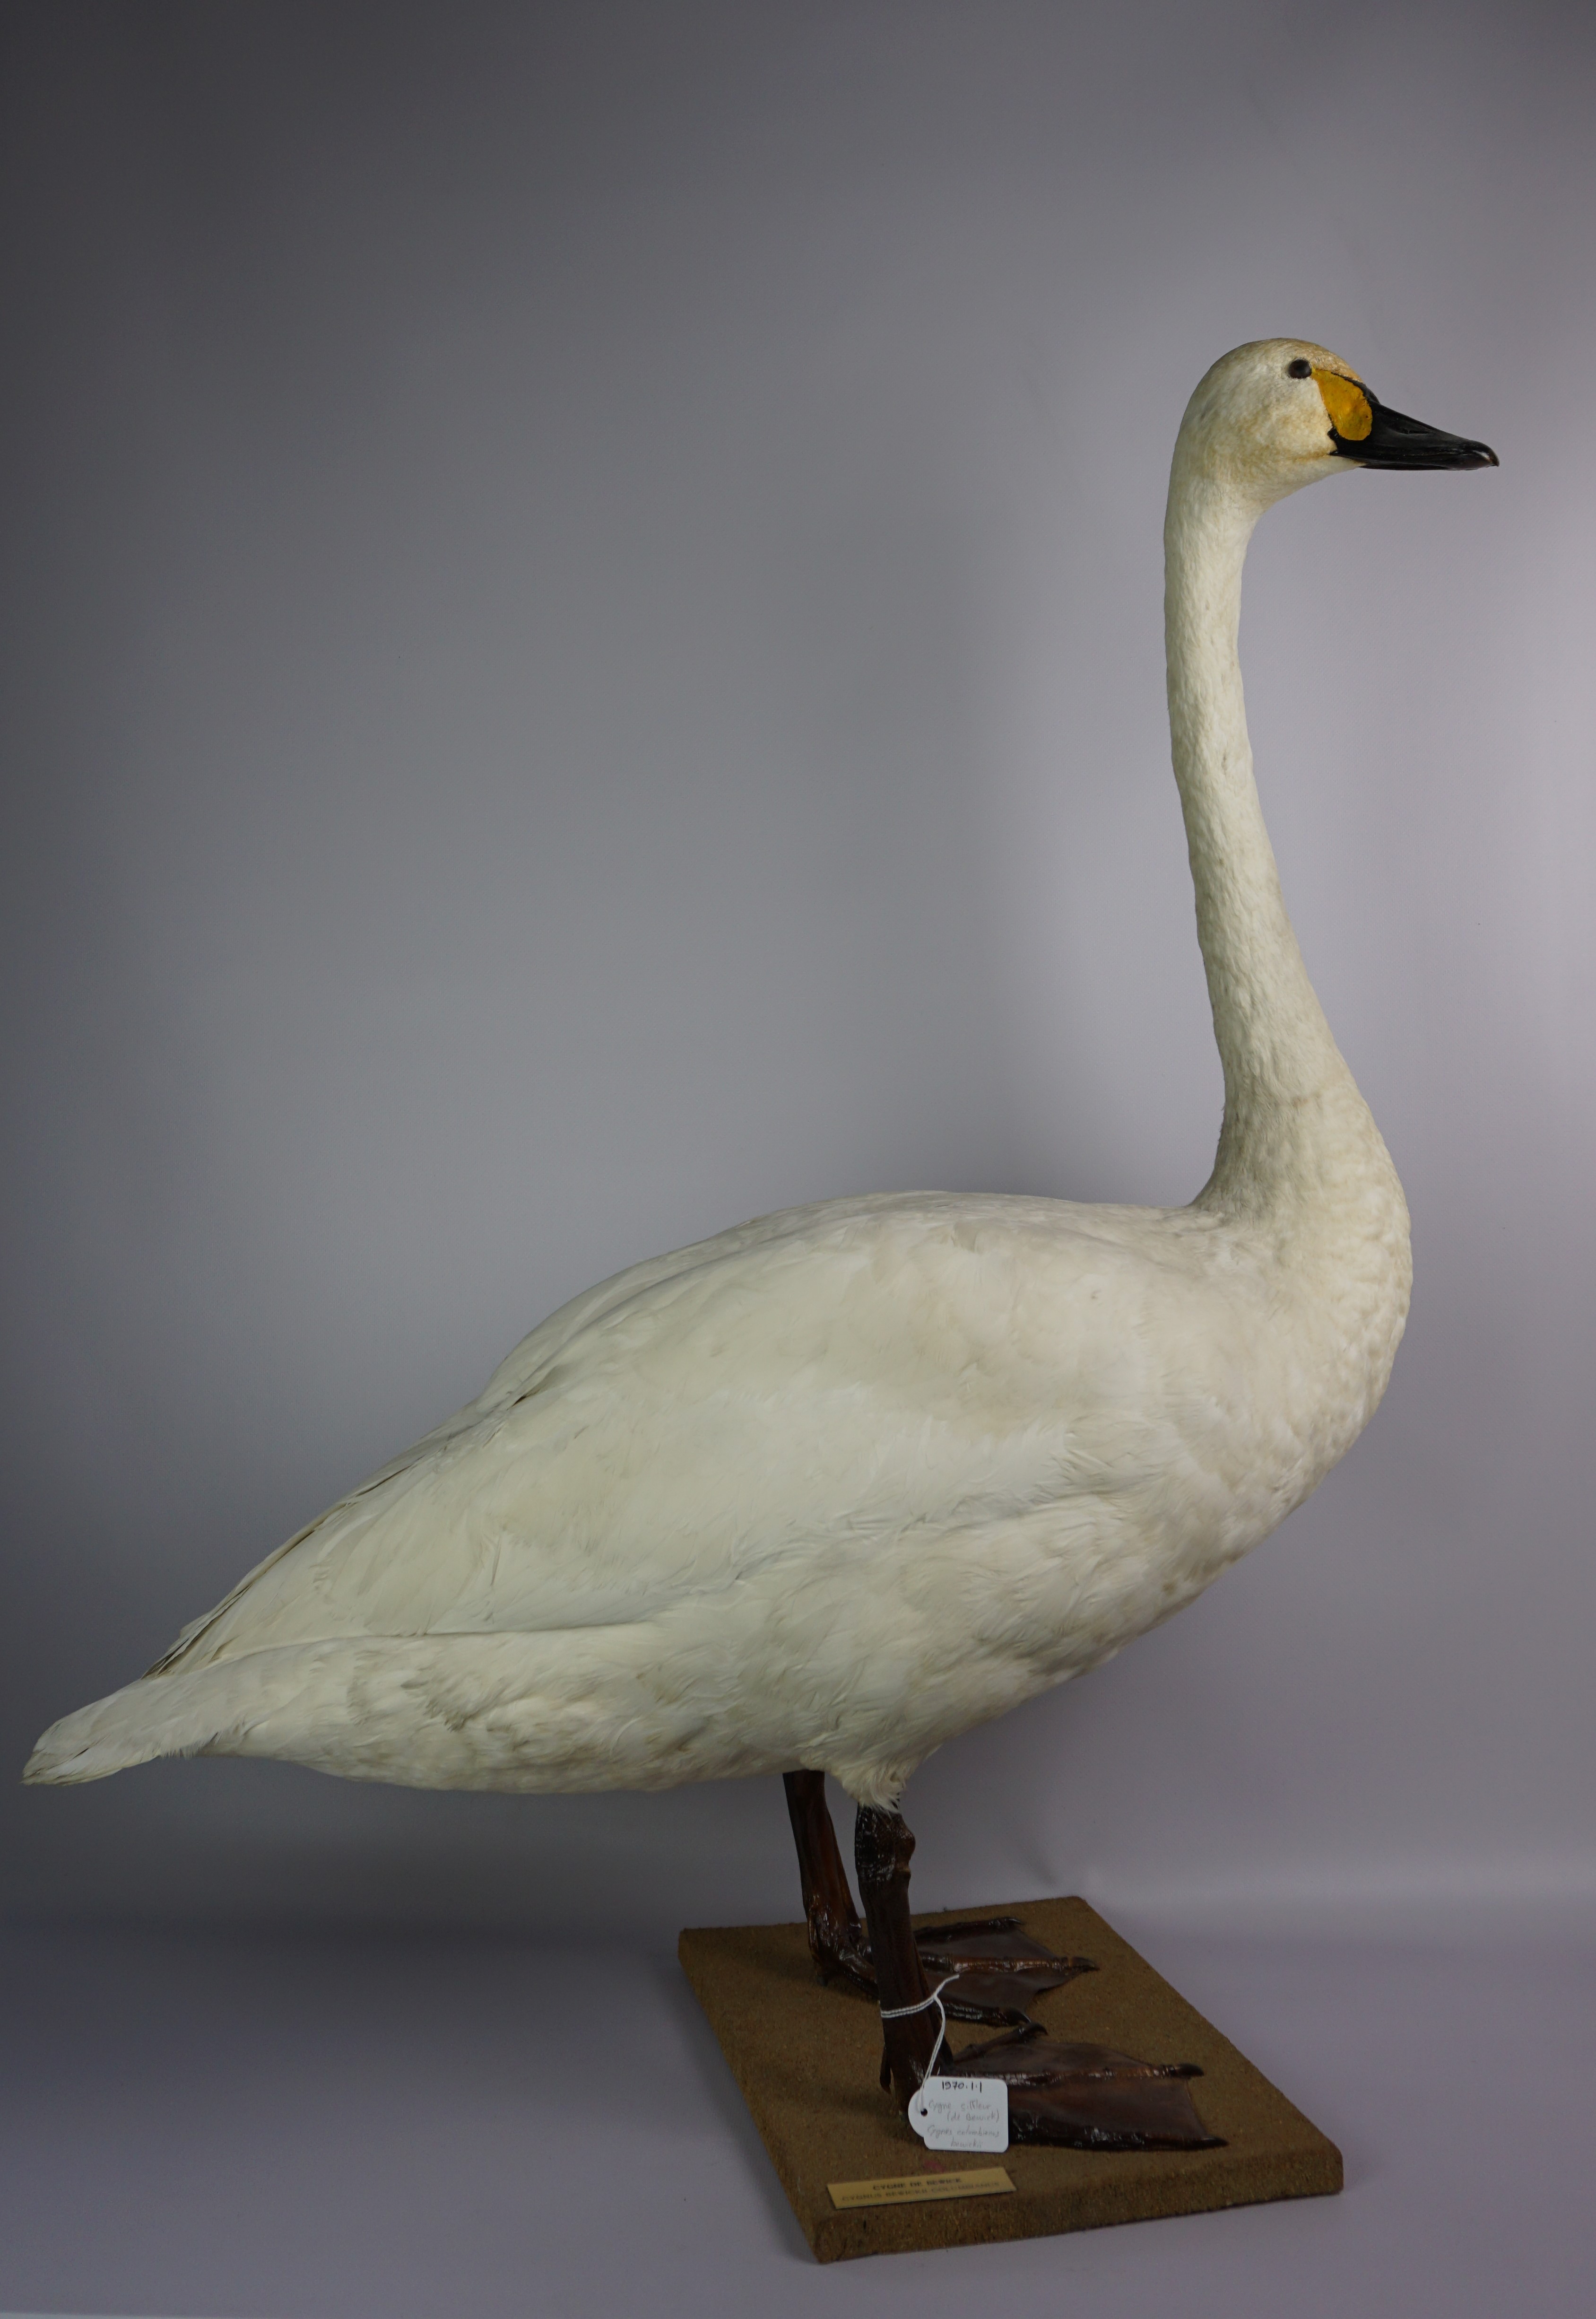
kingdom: Animalia
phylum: Chordata
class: Aves
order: Anseriformes
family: Anatidae
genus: Cygnus
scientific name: Cygnus columbianus
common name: Tundra swan
